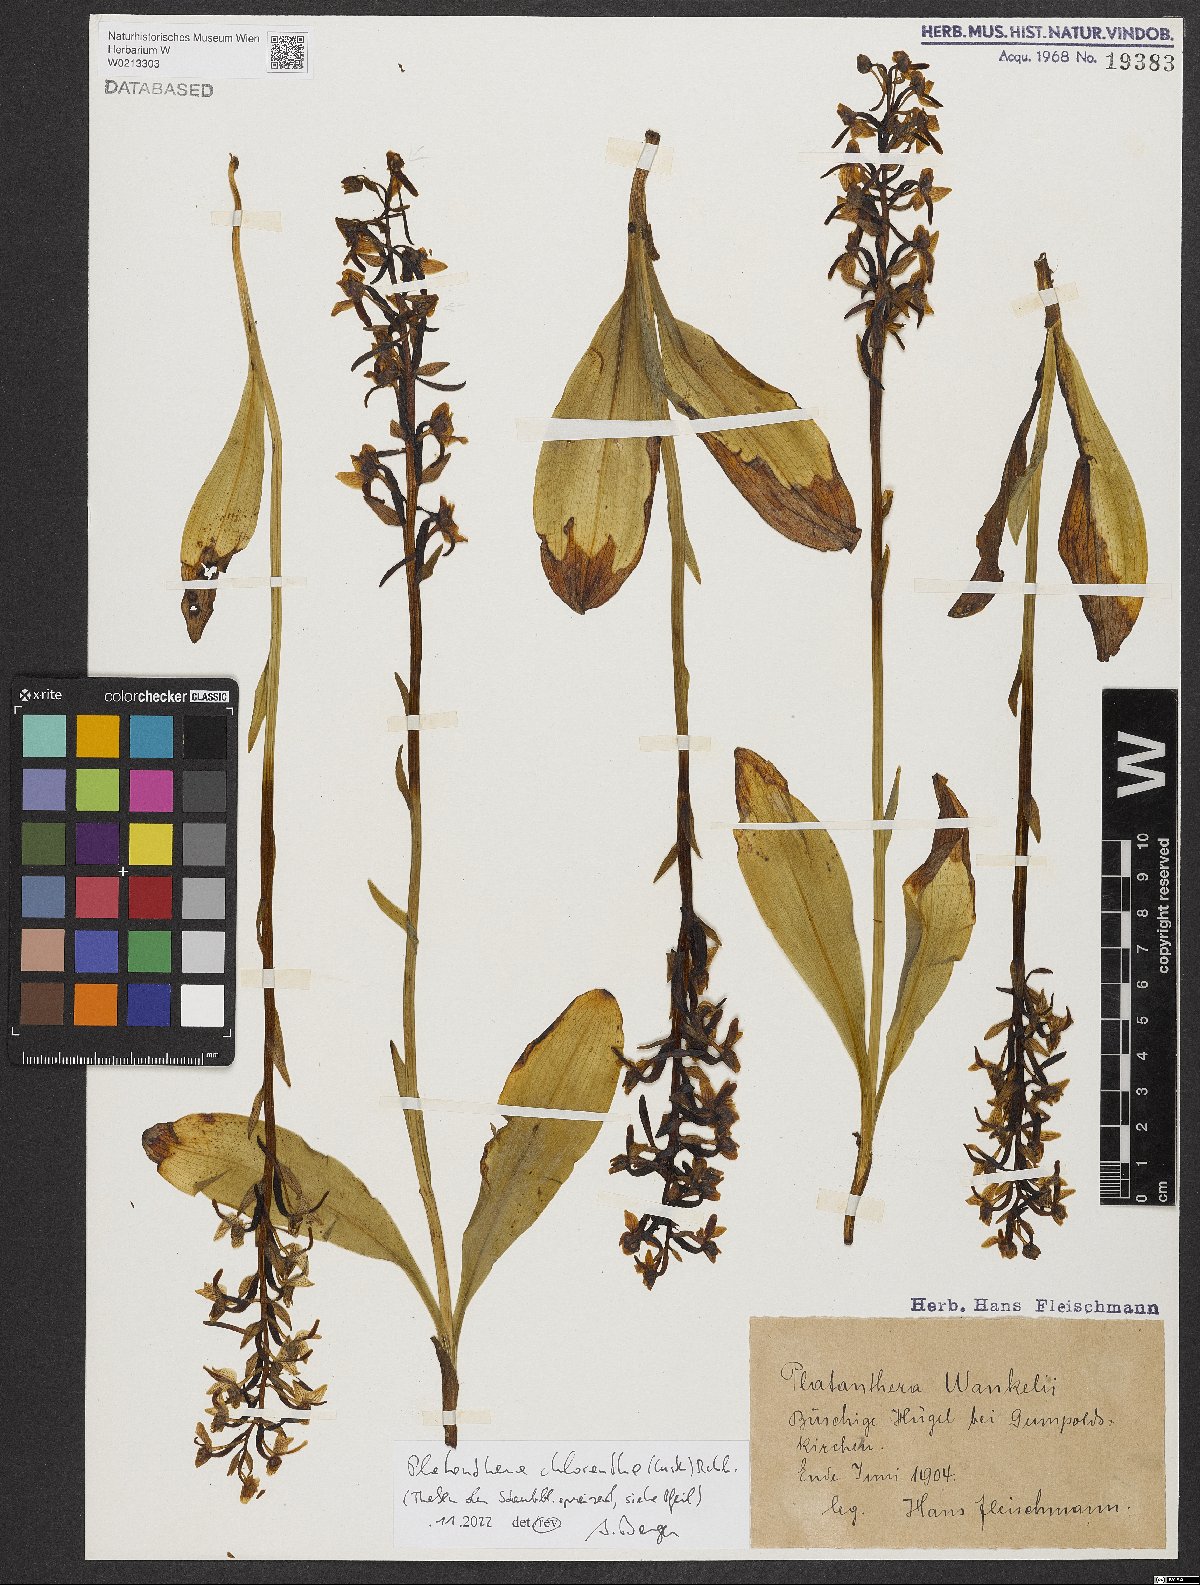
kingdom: Plantae
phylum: Tracheophyta
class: Liliopsida
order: Asparagales
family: Orchidaceae
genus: Platanthera
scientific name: Platanthera chlorantha
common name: Greater butterfly-orchid
